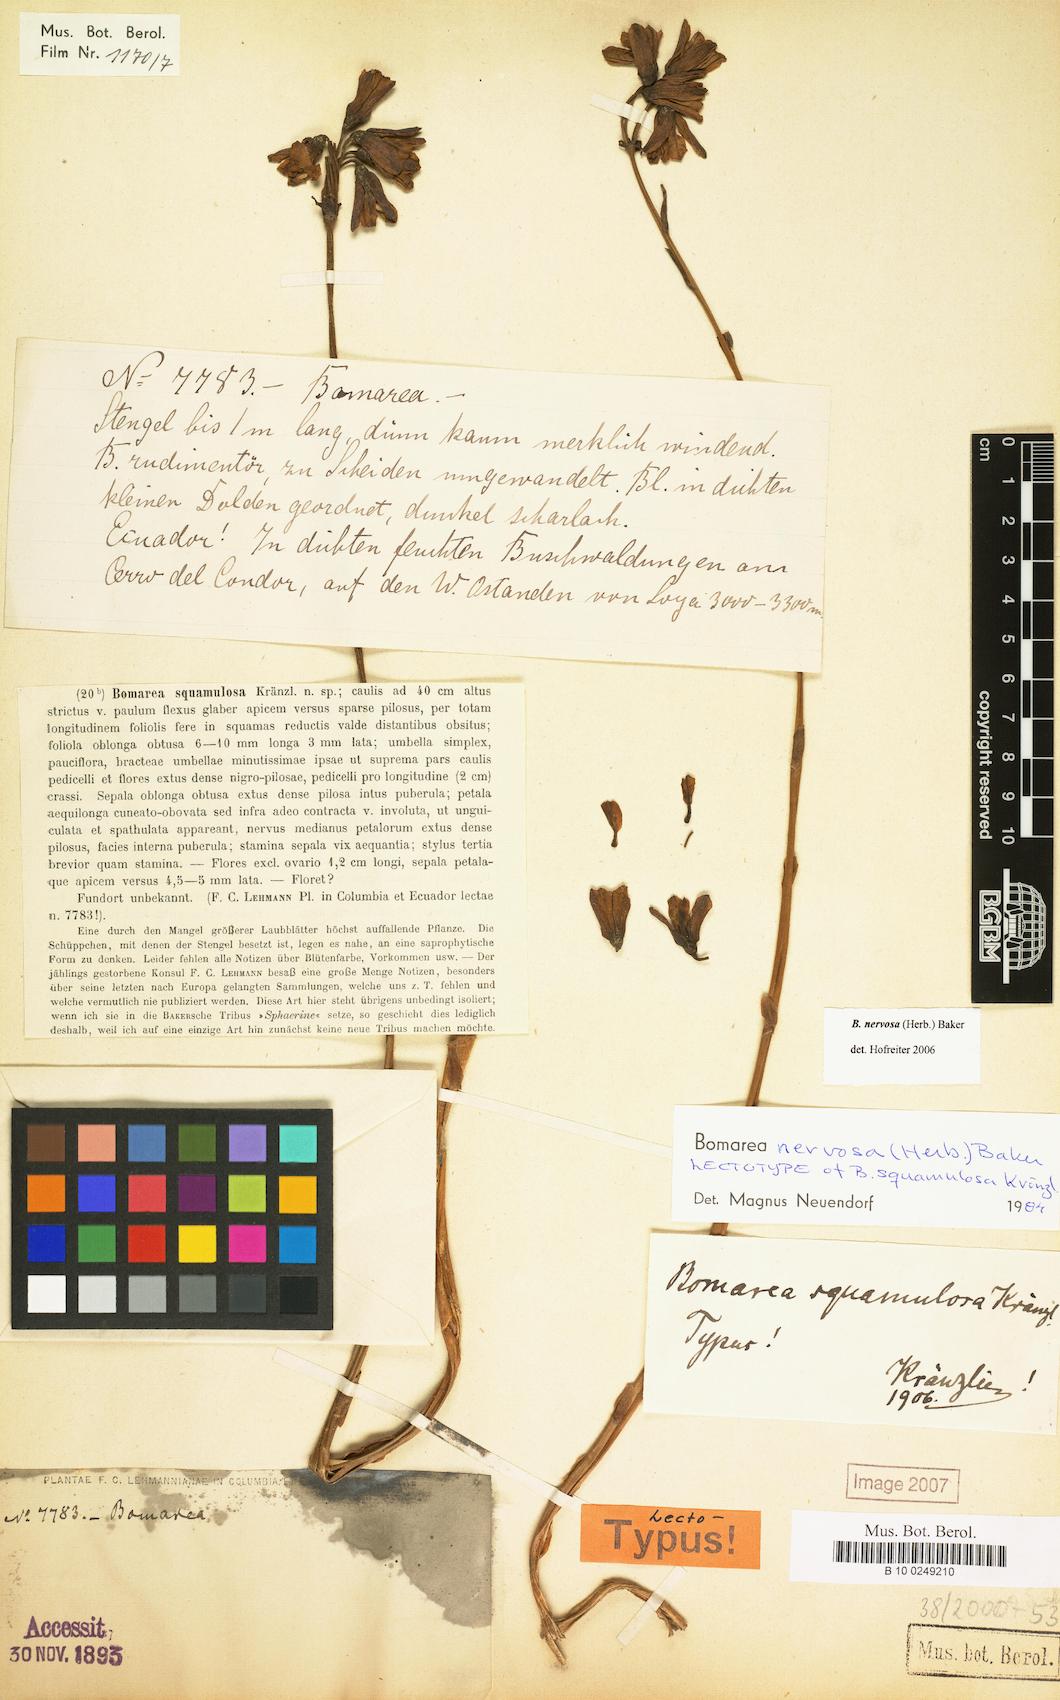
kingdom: Plantae
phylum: Tracheophyta
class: Liliopsida
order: Liliales
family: Alstroemeriaceae
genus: Bomarea
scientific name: Bomarea nervosa
